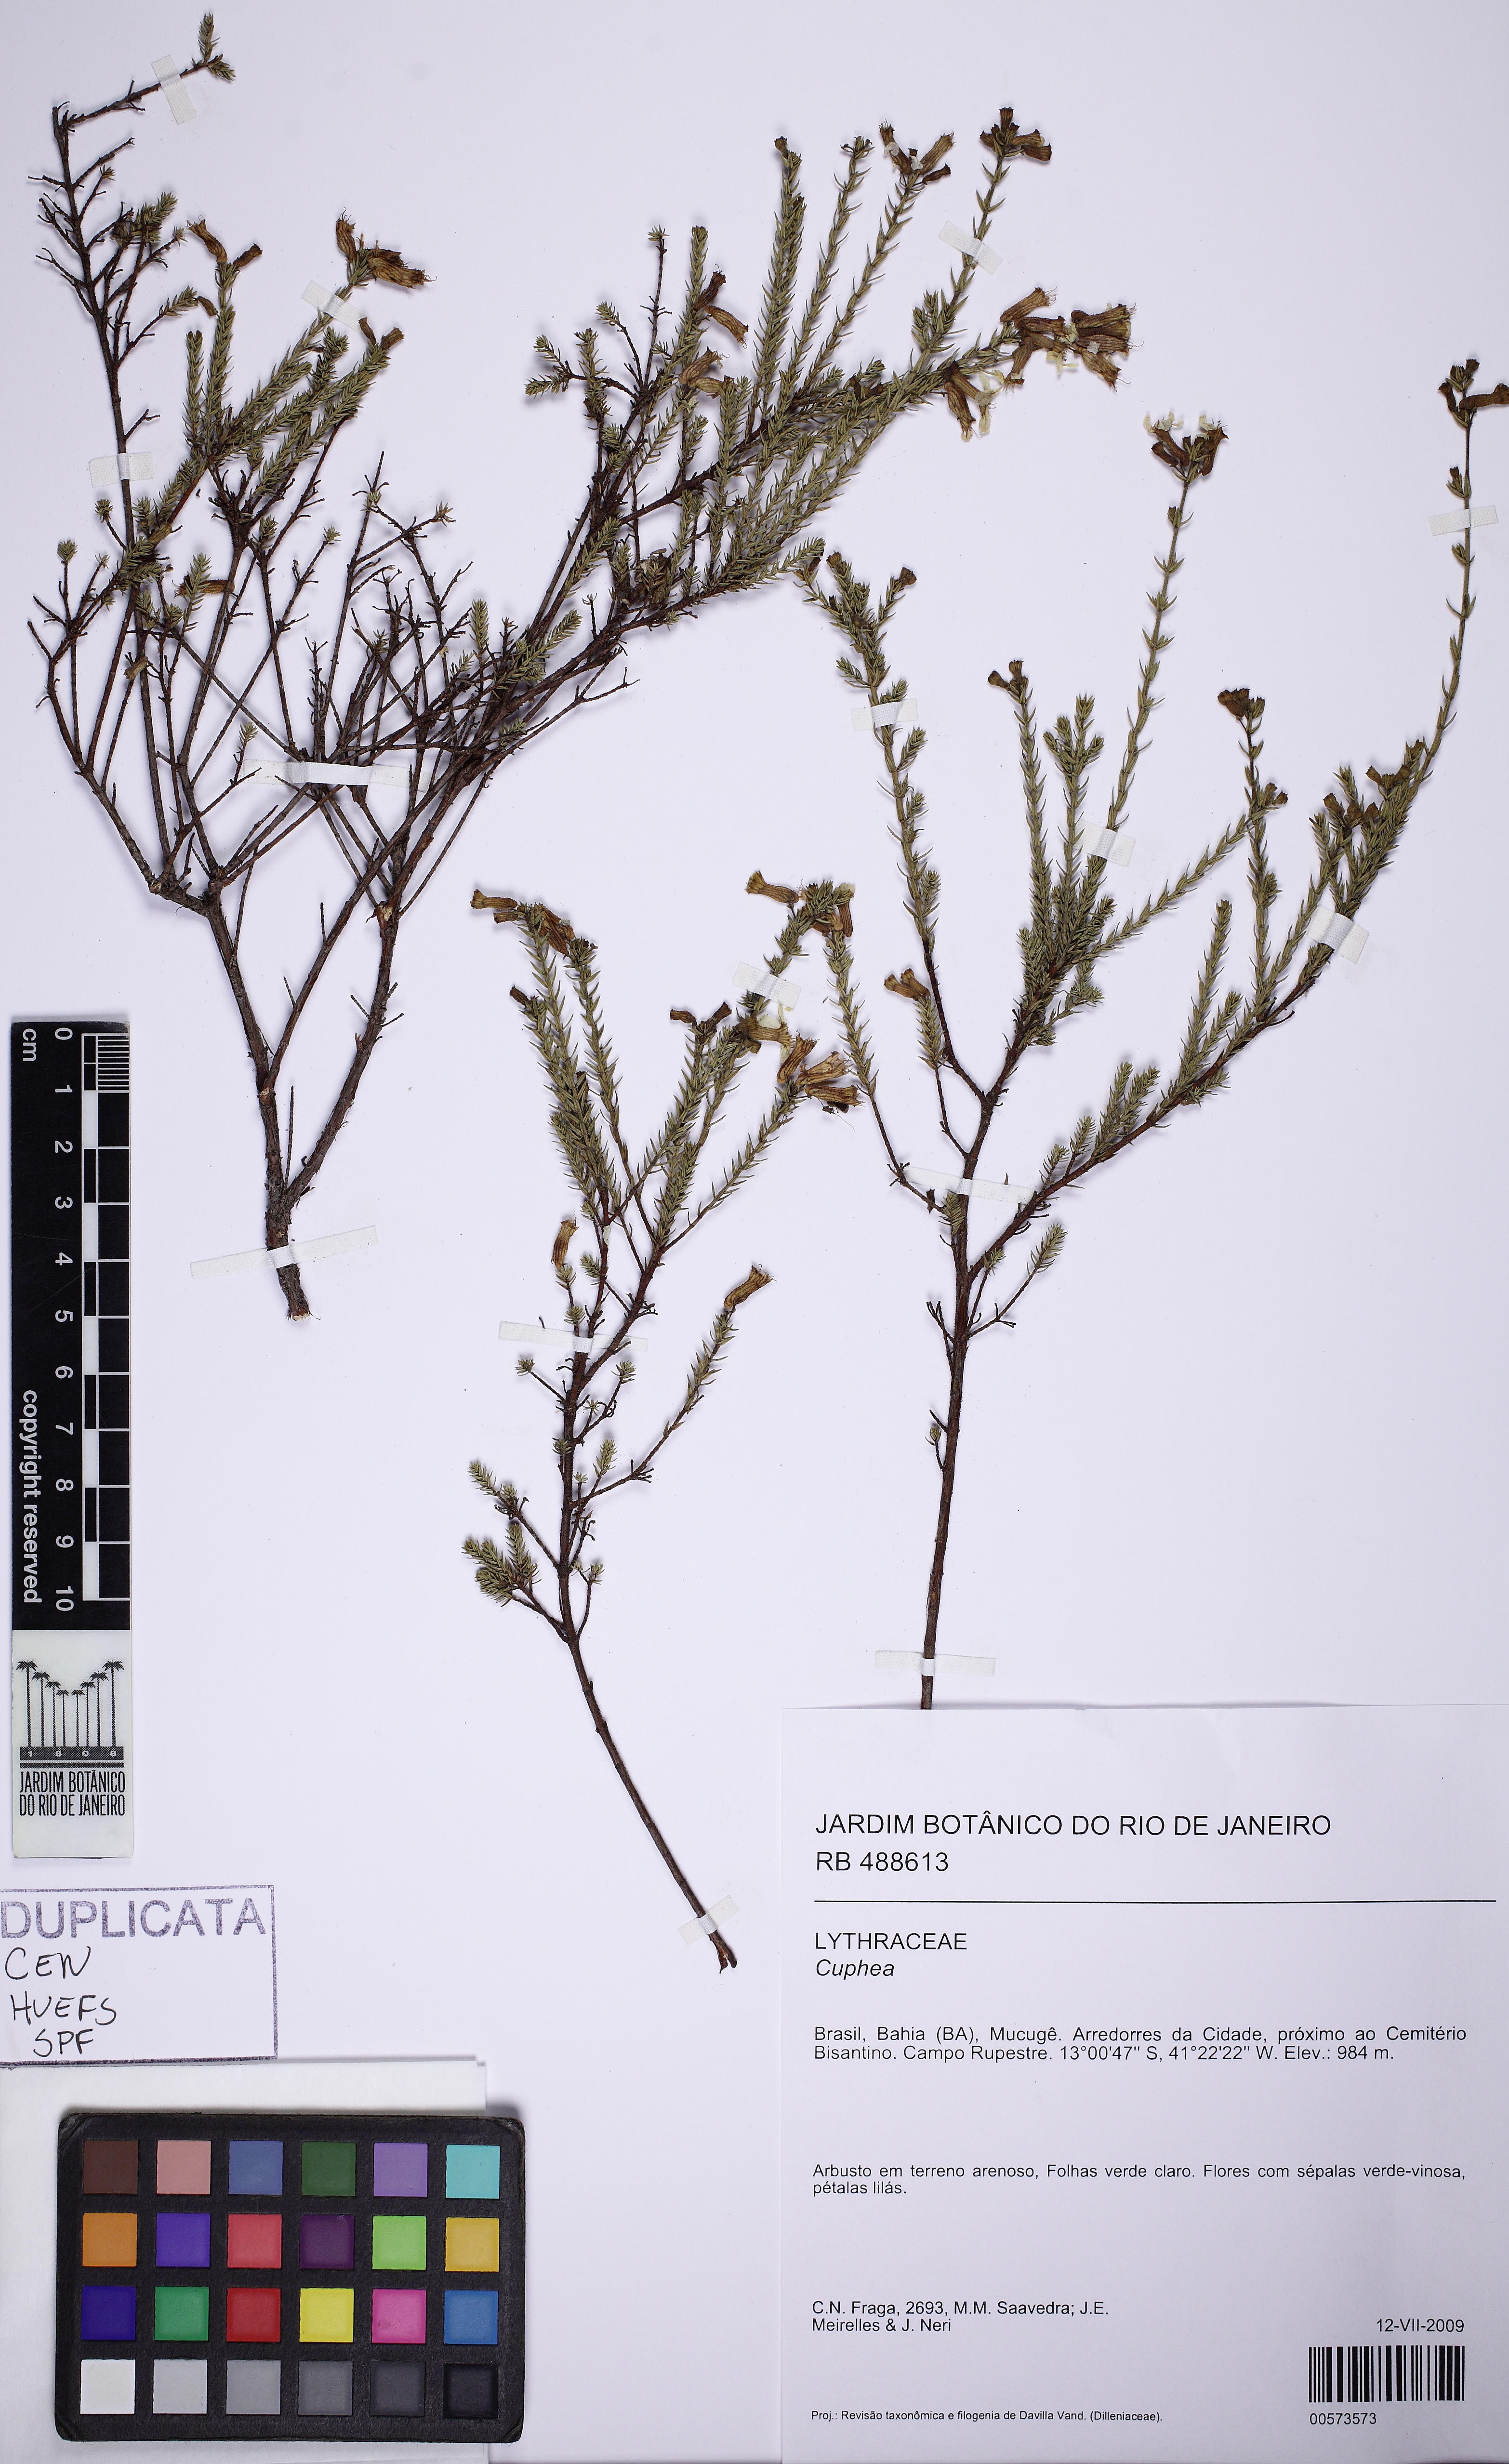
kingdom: Plantae
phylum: Tracheophyta
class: Magnoliopsida
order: Myrtales
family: Lythraceae
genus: Cuphea
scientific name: Cuphea ericoides
